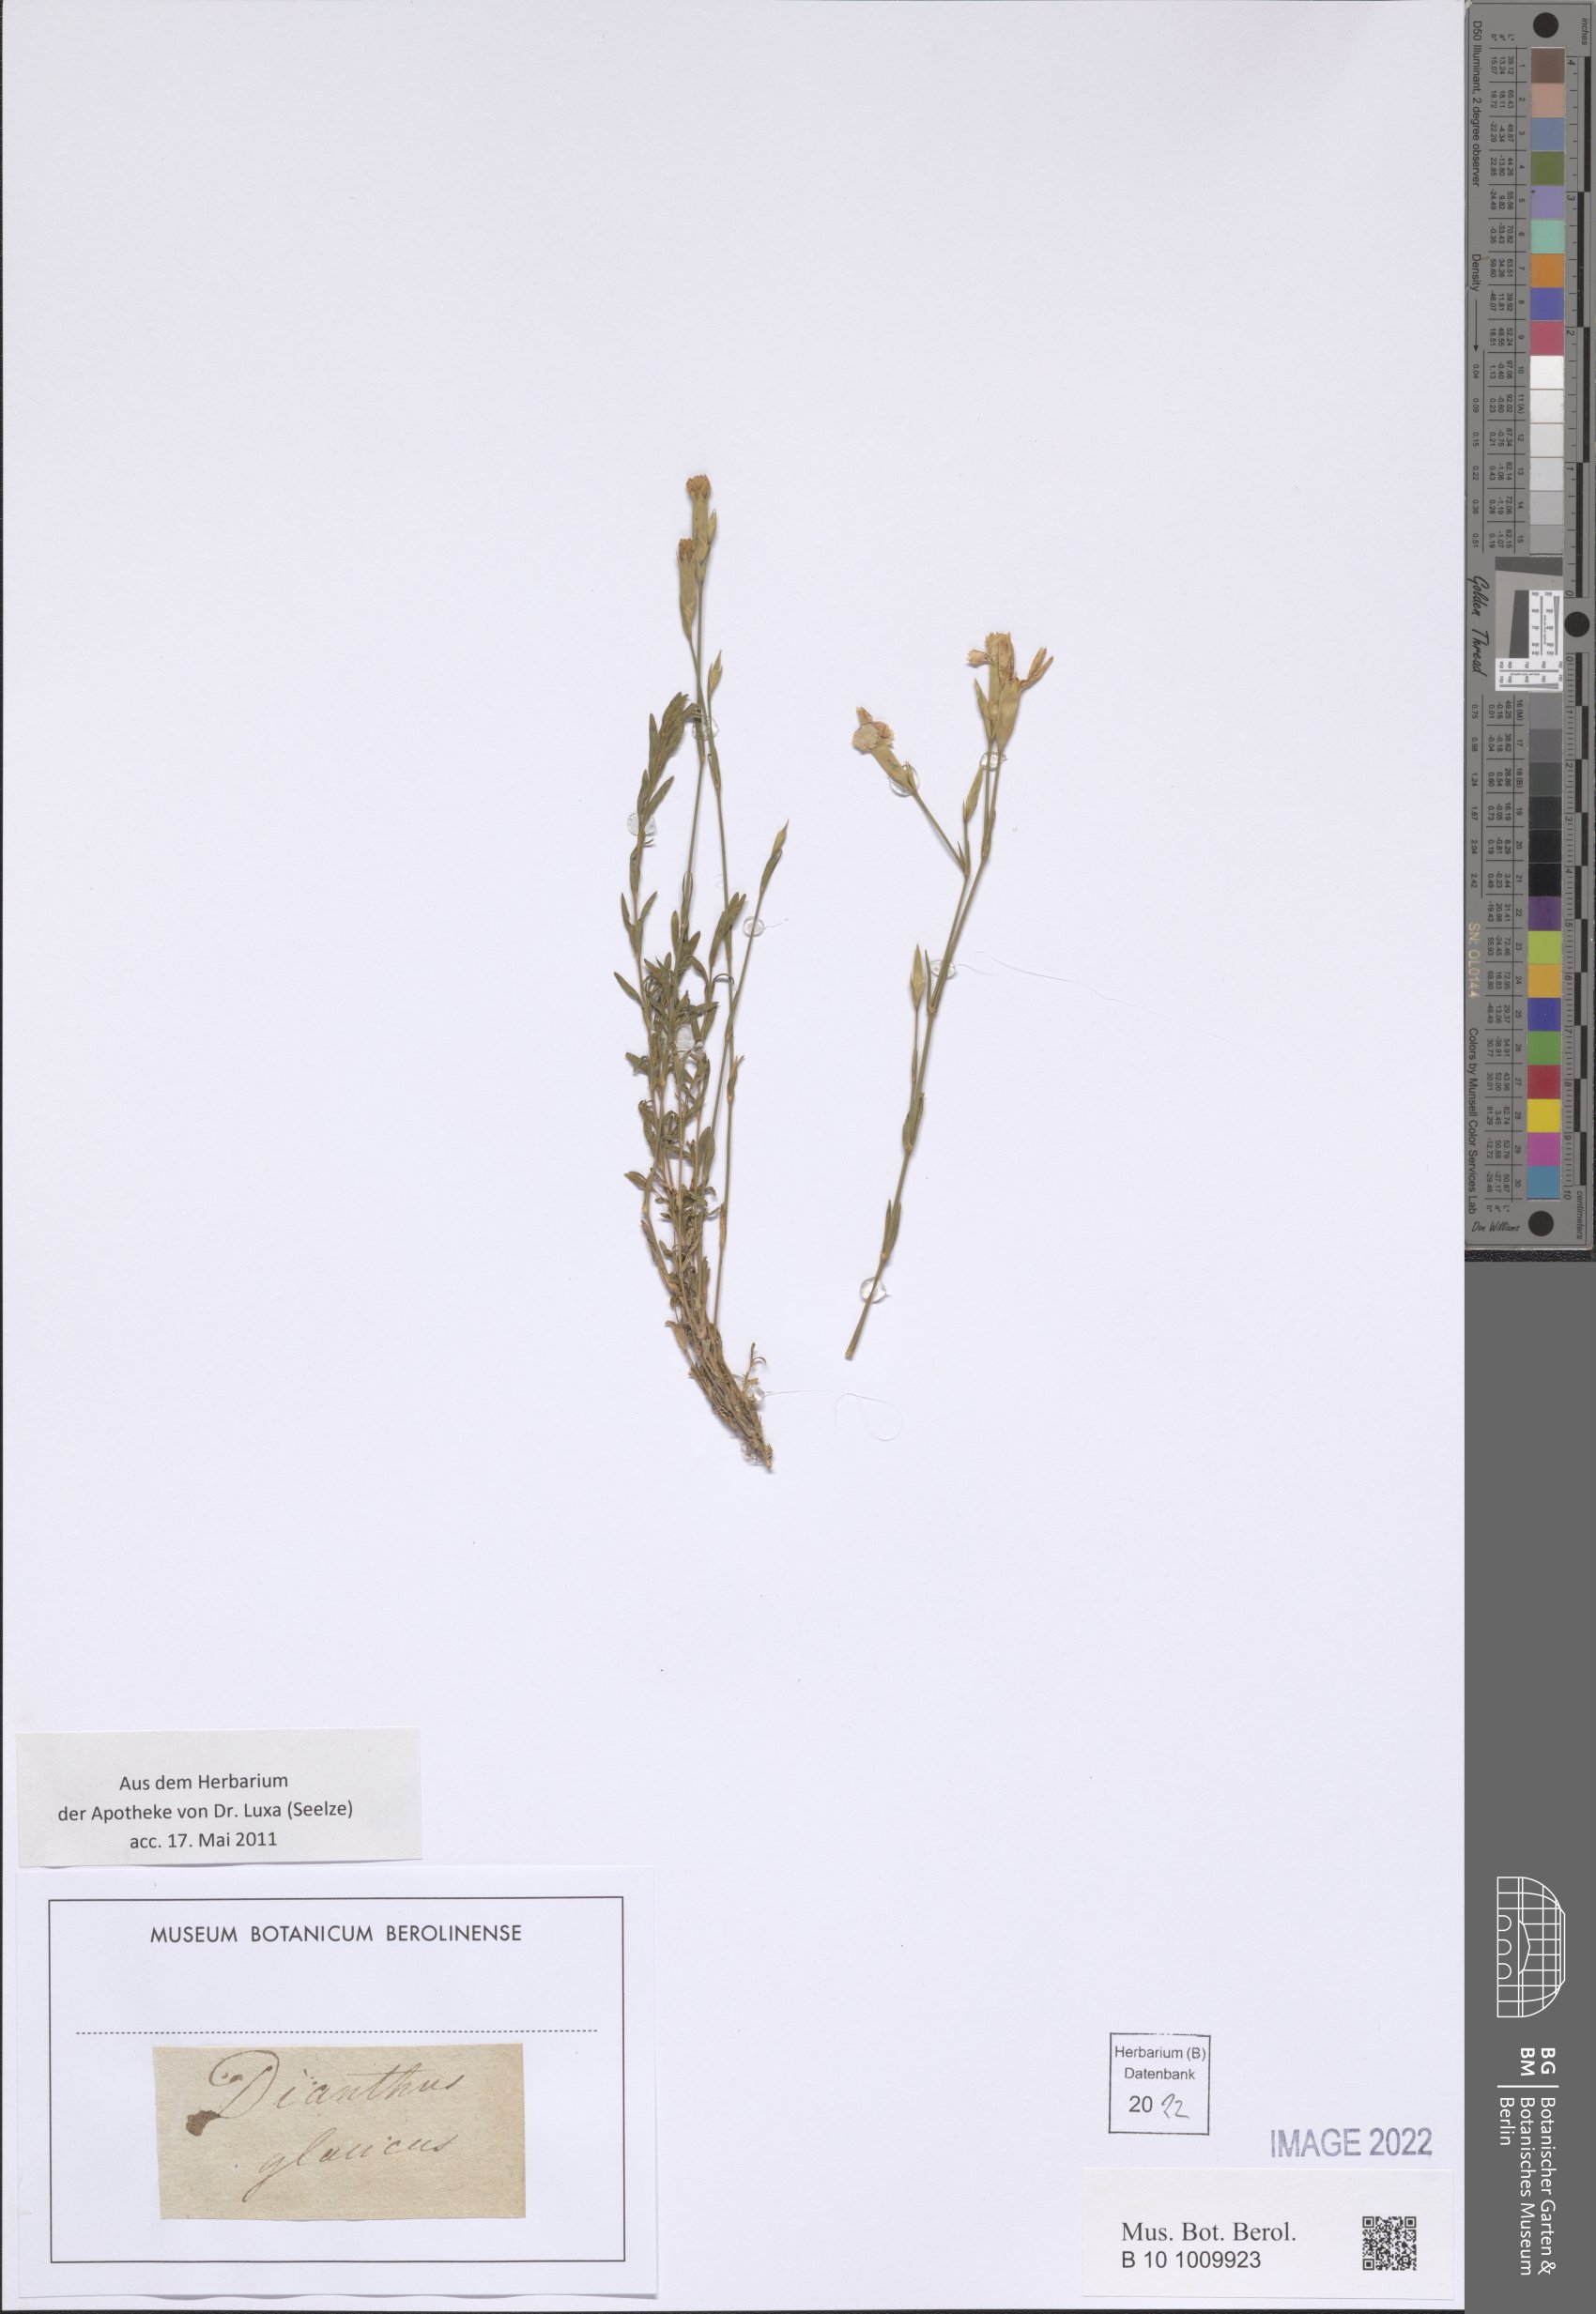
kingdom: Plantae
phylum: Tracheophyta
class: Magnoliopsida
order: Caryophyllales
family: Caryophyllaceae
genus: Dianthus
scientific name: Dianthus deltoides
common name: Maiden pink
